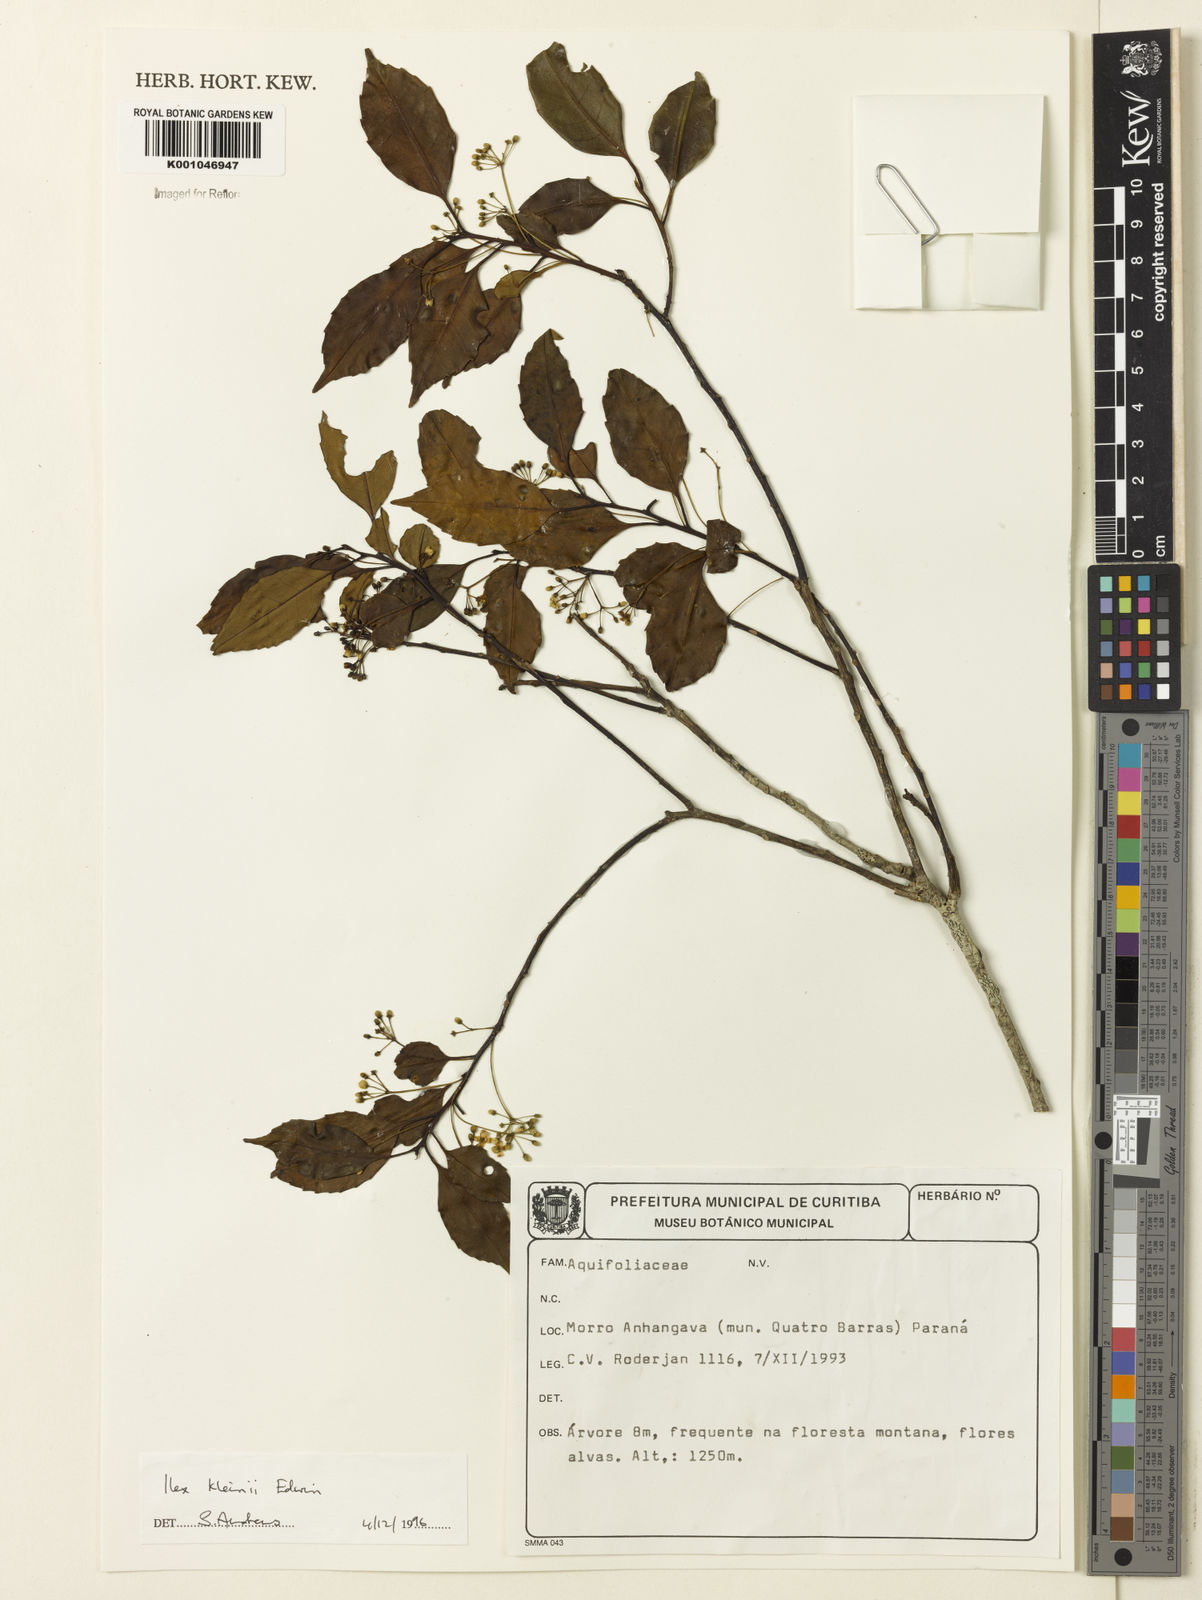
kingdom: Plantae
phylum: Tracheophyta
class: Magnoliopsida
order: Aquifoliales
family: Aquifoliaceae
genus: Ilex
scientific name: Ilex taubertiana
